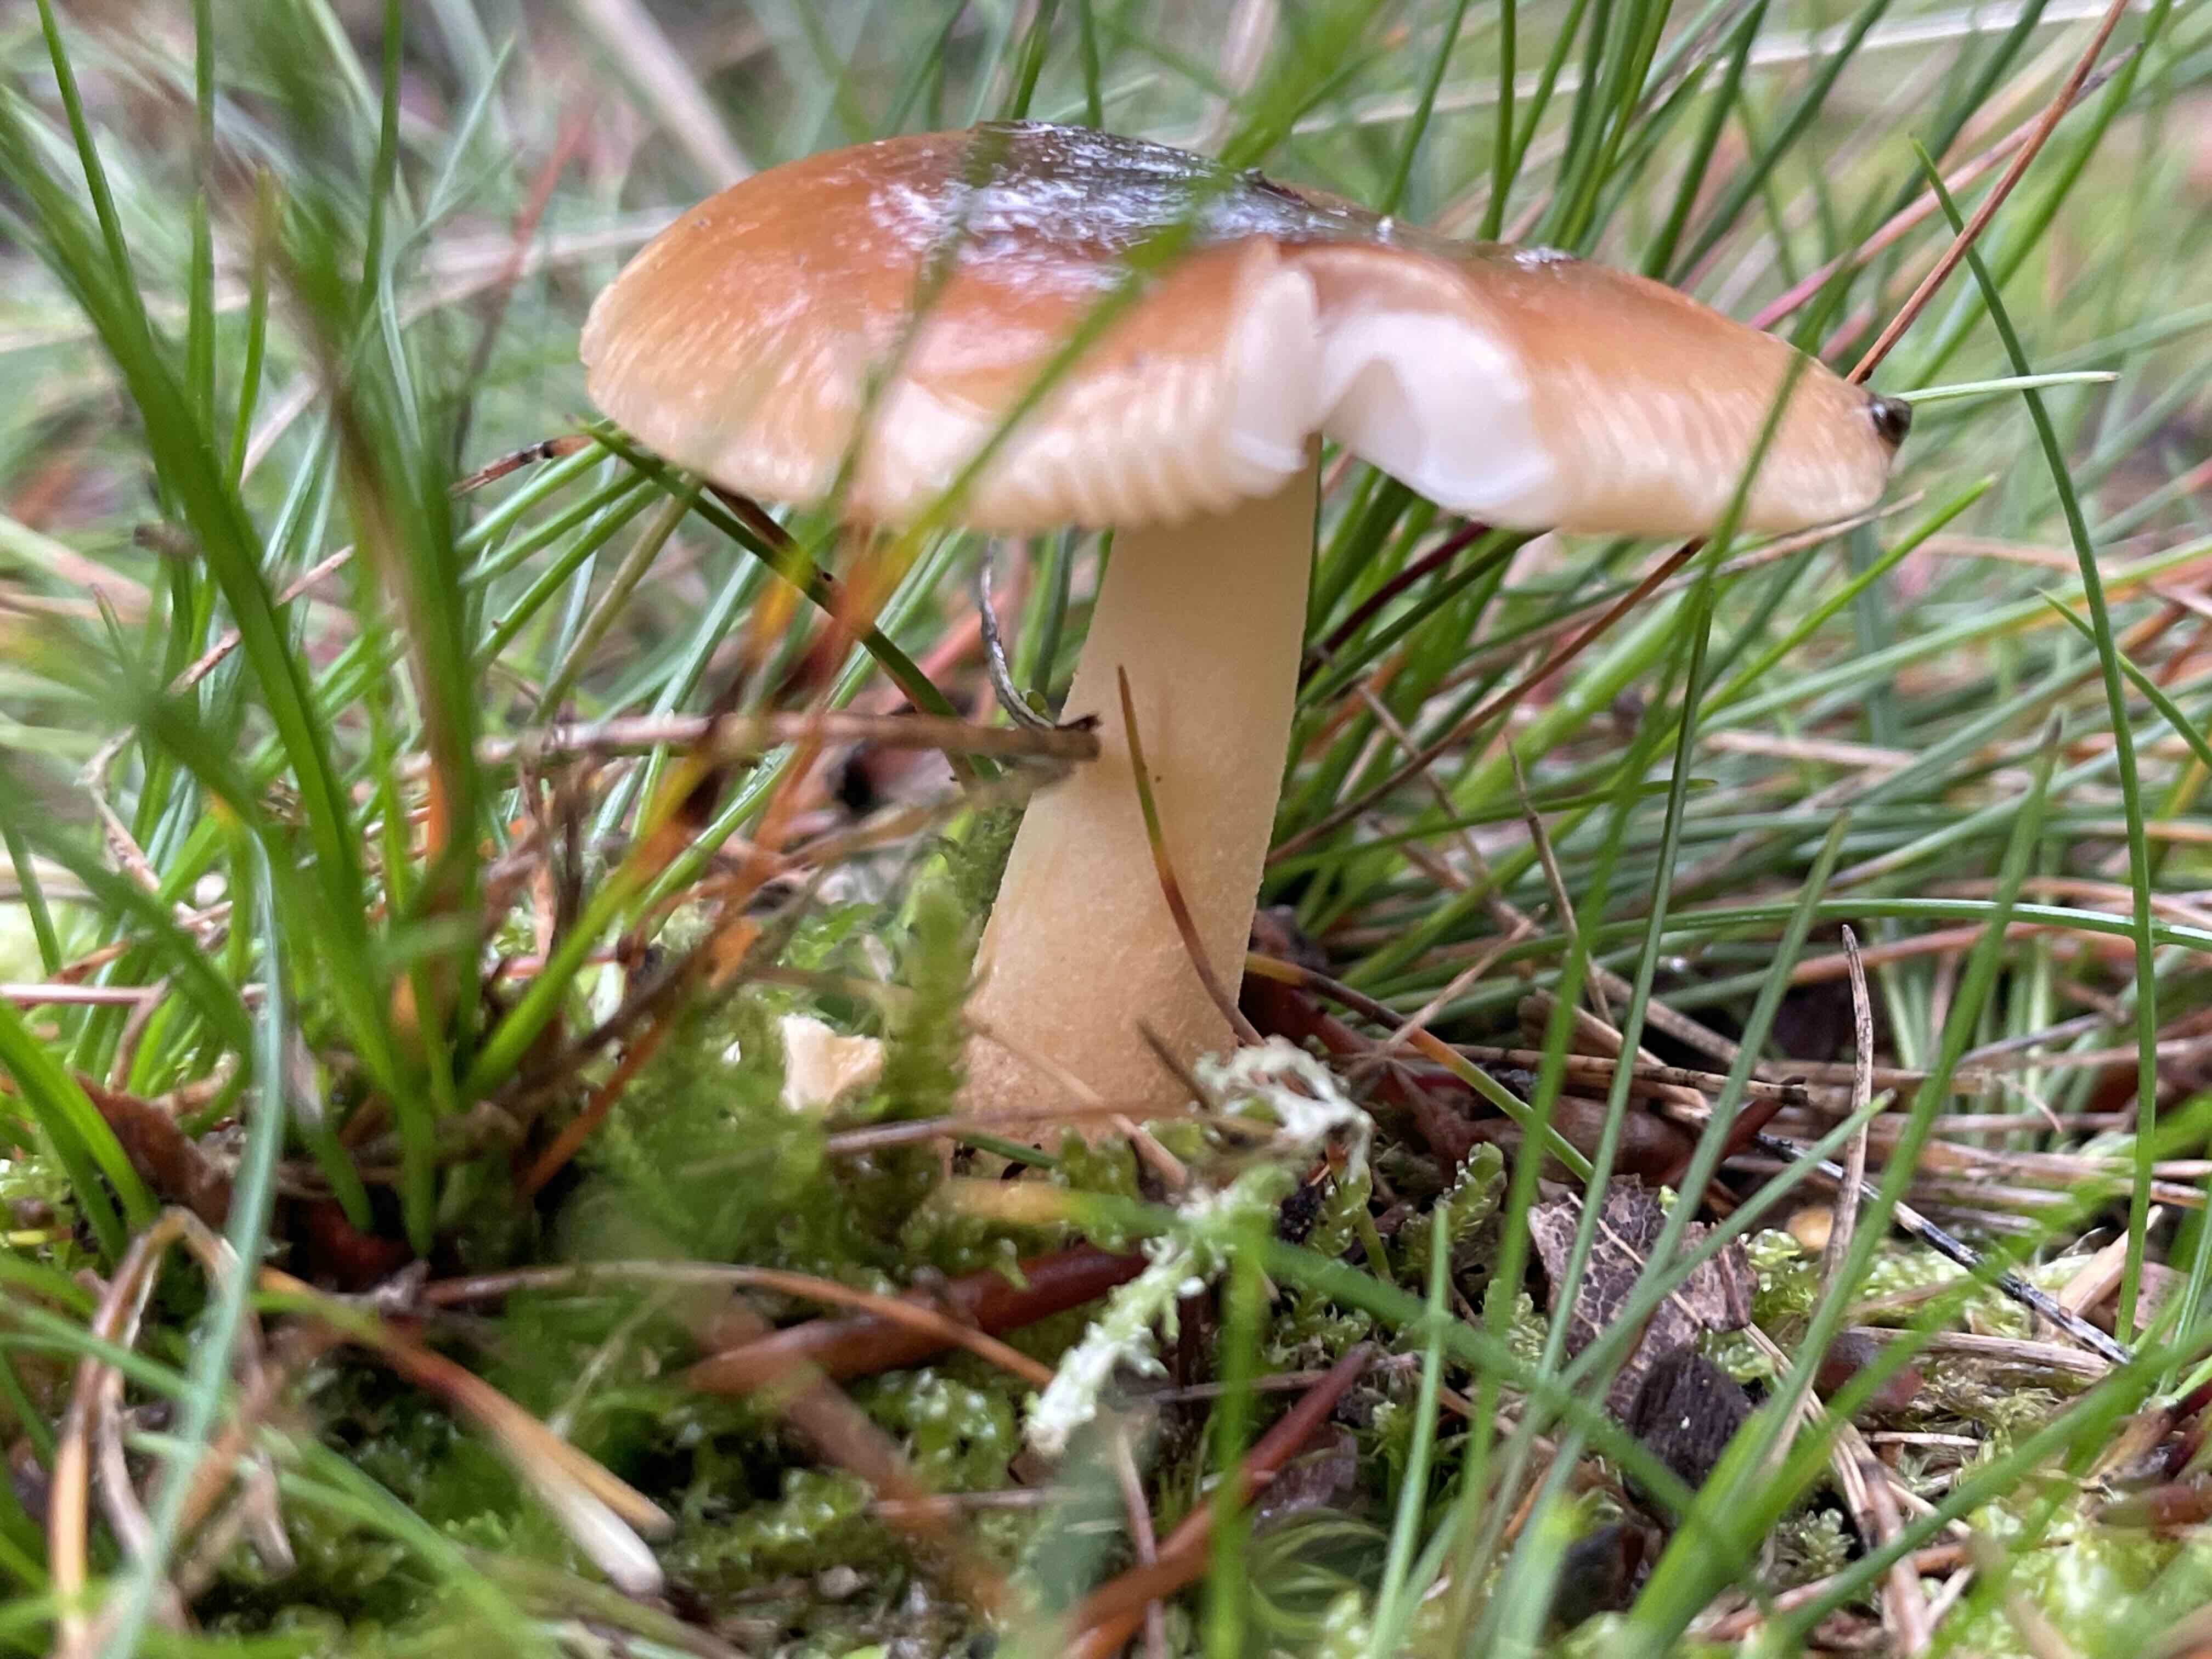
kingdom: Fungi
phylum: Basidiomycota
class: Agaricomycetes
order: Agaricales
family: Amanitaceae
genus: Amanita
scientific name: Amanita fulva
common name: brun kam-fluesvamp
